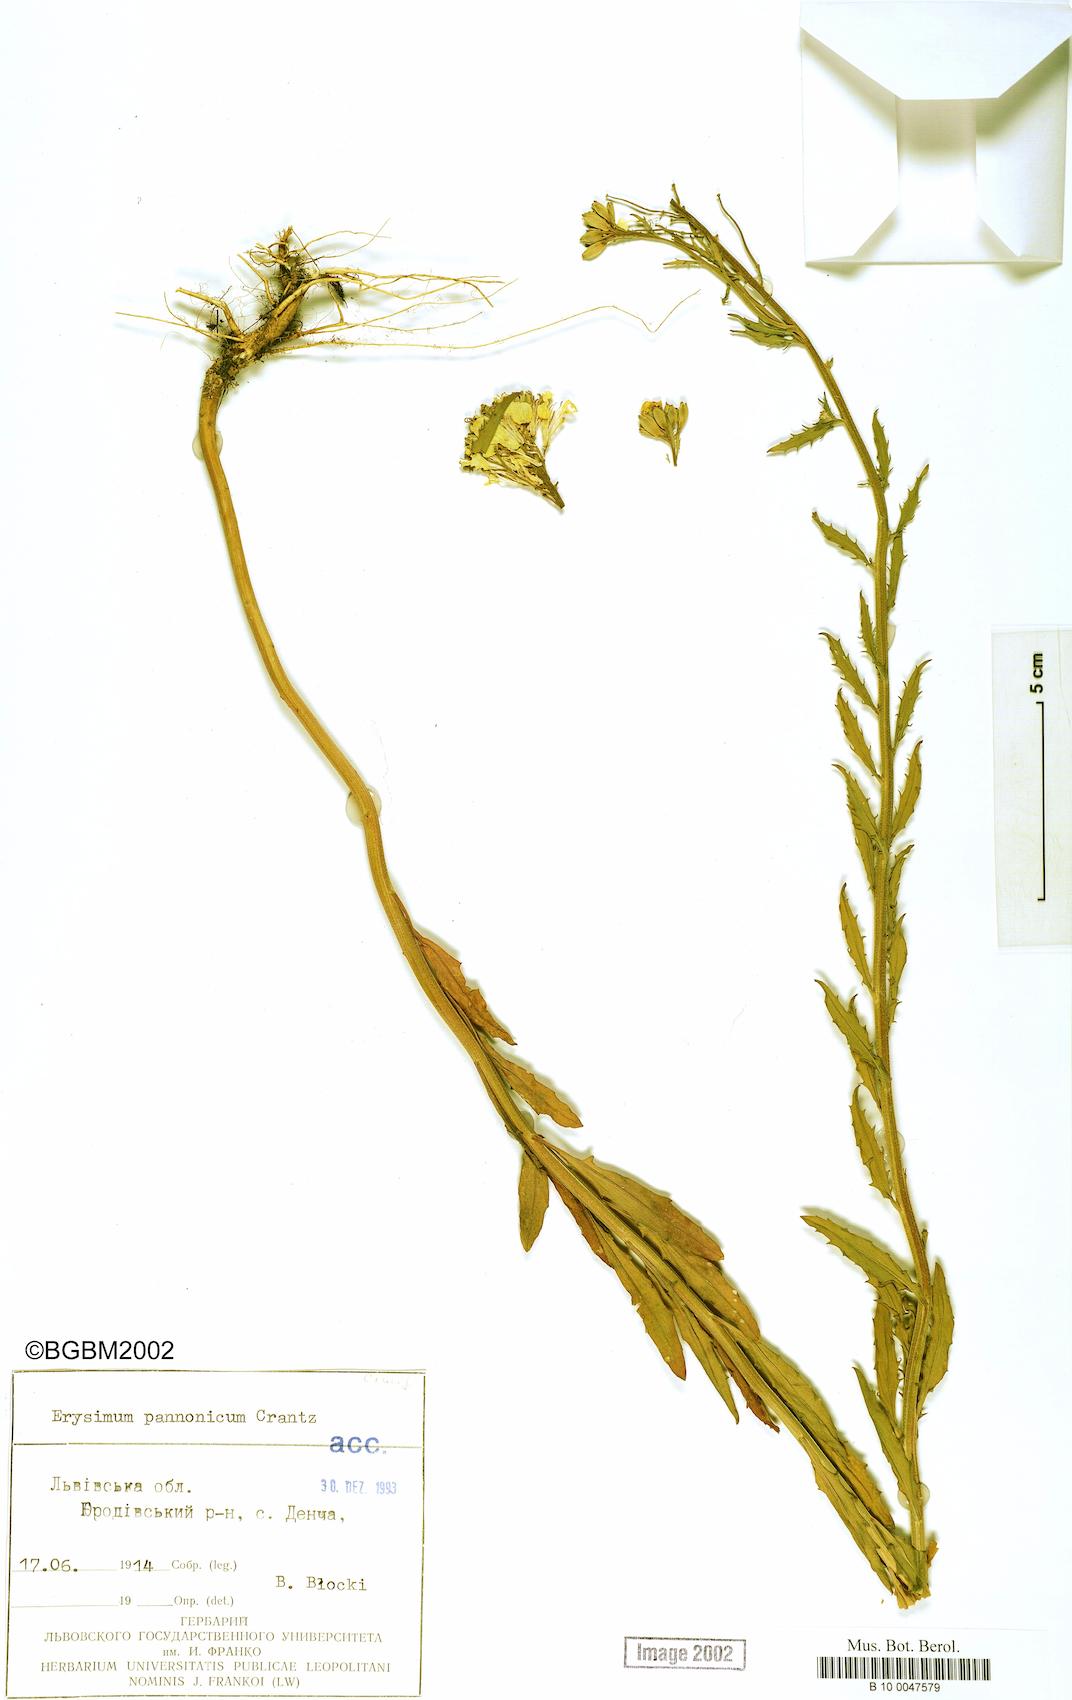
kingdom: Plantae
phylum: Tracheophyta
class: Magnoliopsida
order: Brassicales
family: Brassicaceae
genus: Erysimum
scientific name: Erysimum odoratum
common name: Smelly wallflower
